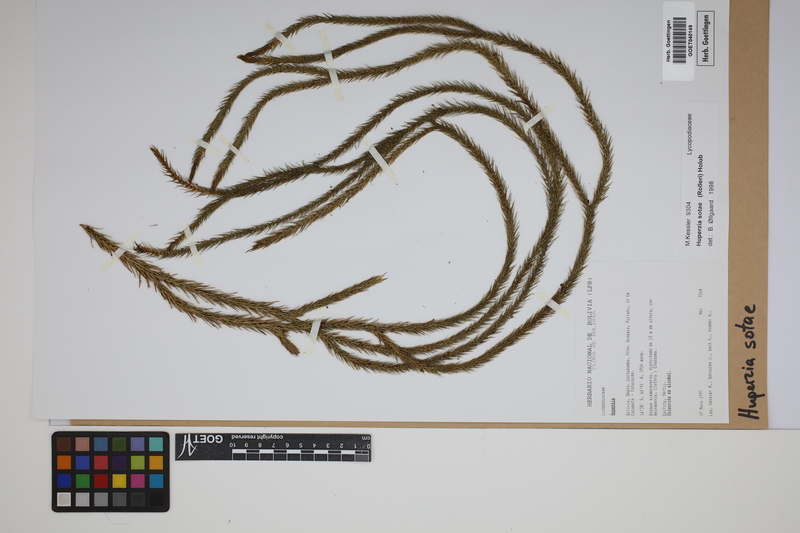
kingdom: Plantae
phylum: Tracheophyta
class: Lycopodiopsida
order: Lycopodiales
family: Lycopodiaceae
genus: Phlegmariurus
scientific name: Phlegmariurus sotae
